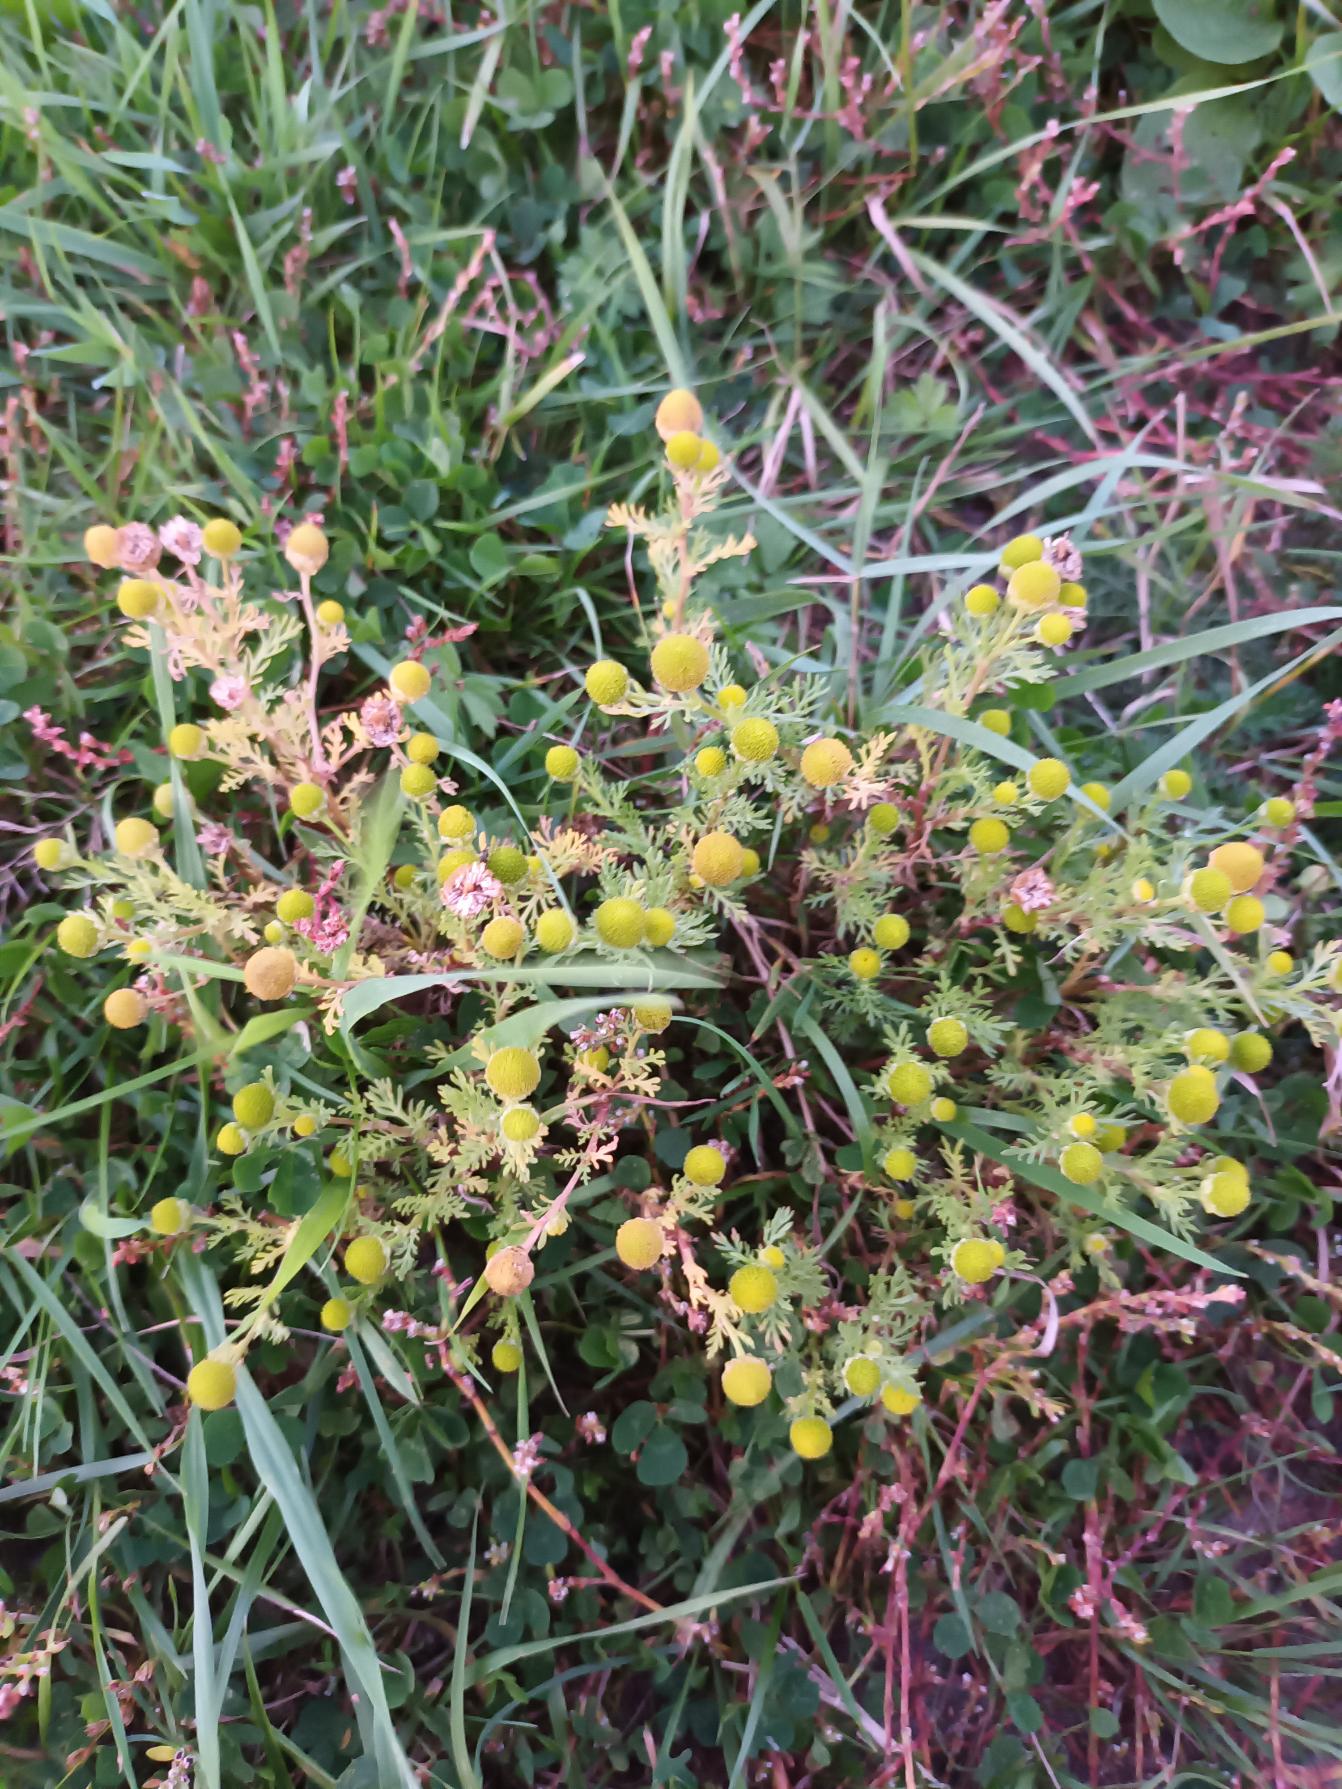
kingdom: Plantae
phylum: Tracheophyta
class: Magnoliopsida
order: Asterales
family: Asteraceae
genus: Matricaria
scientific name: Matricaria discoidea
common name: Skive-kamille
